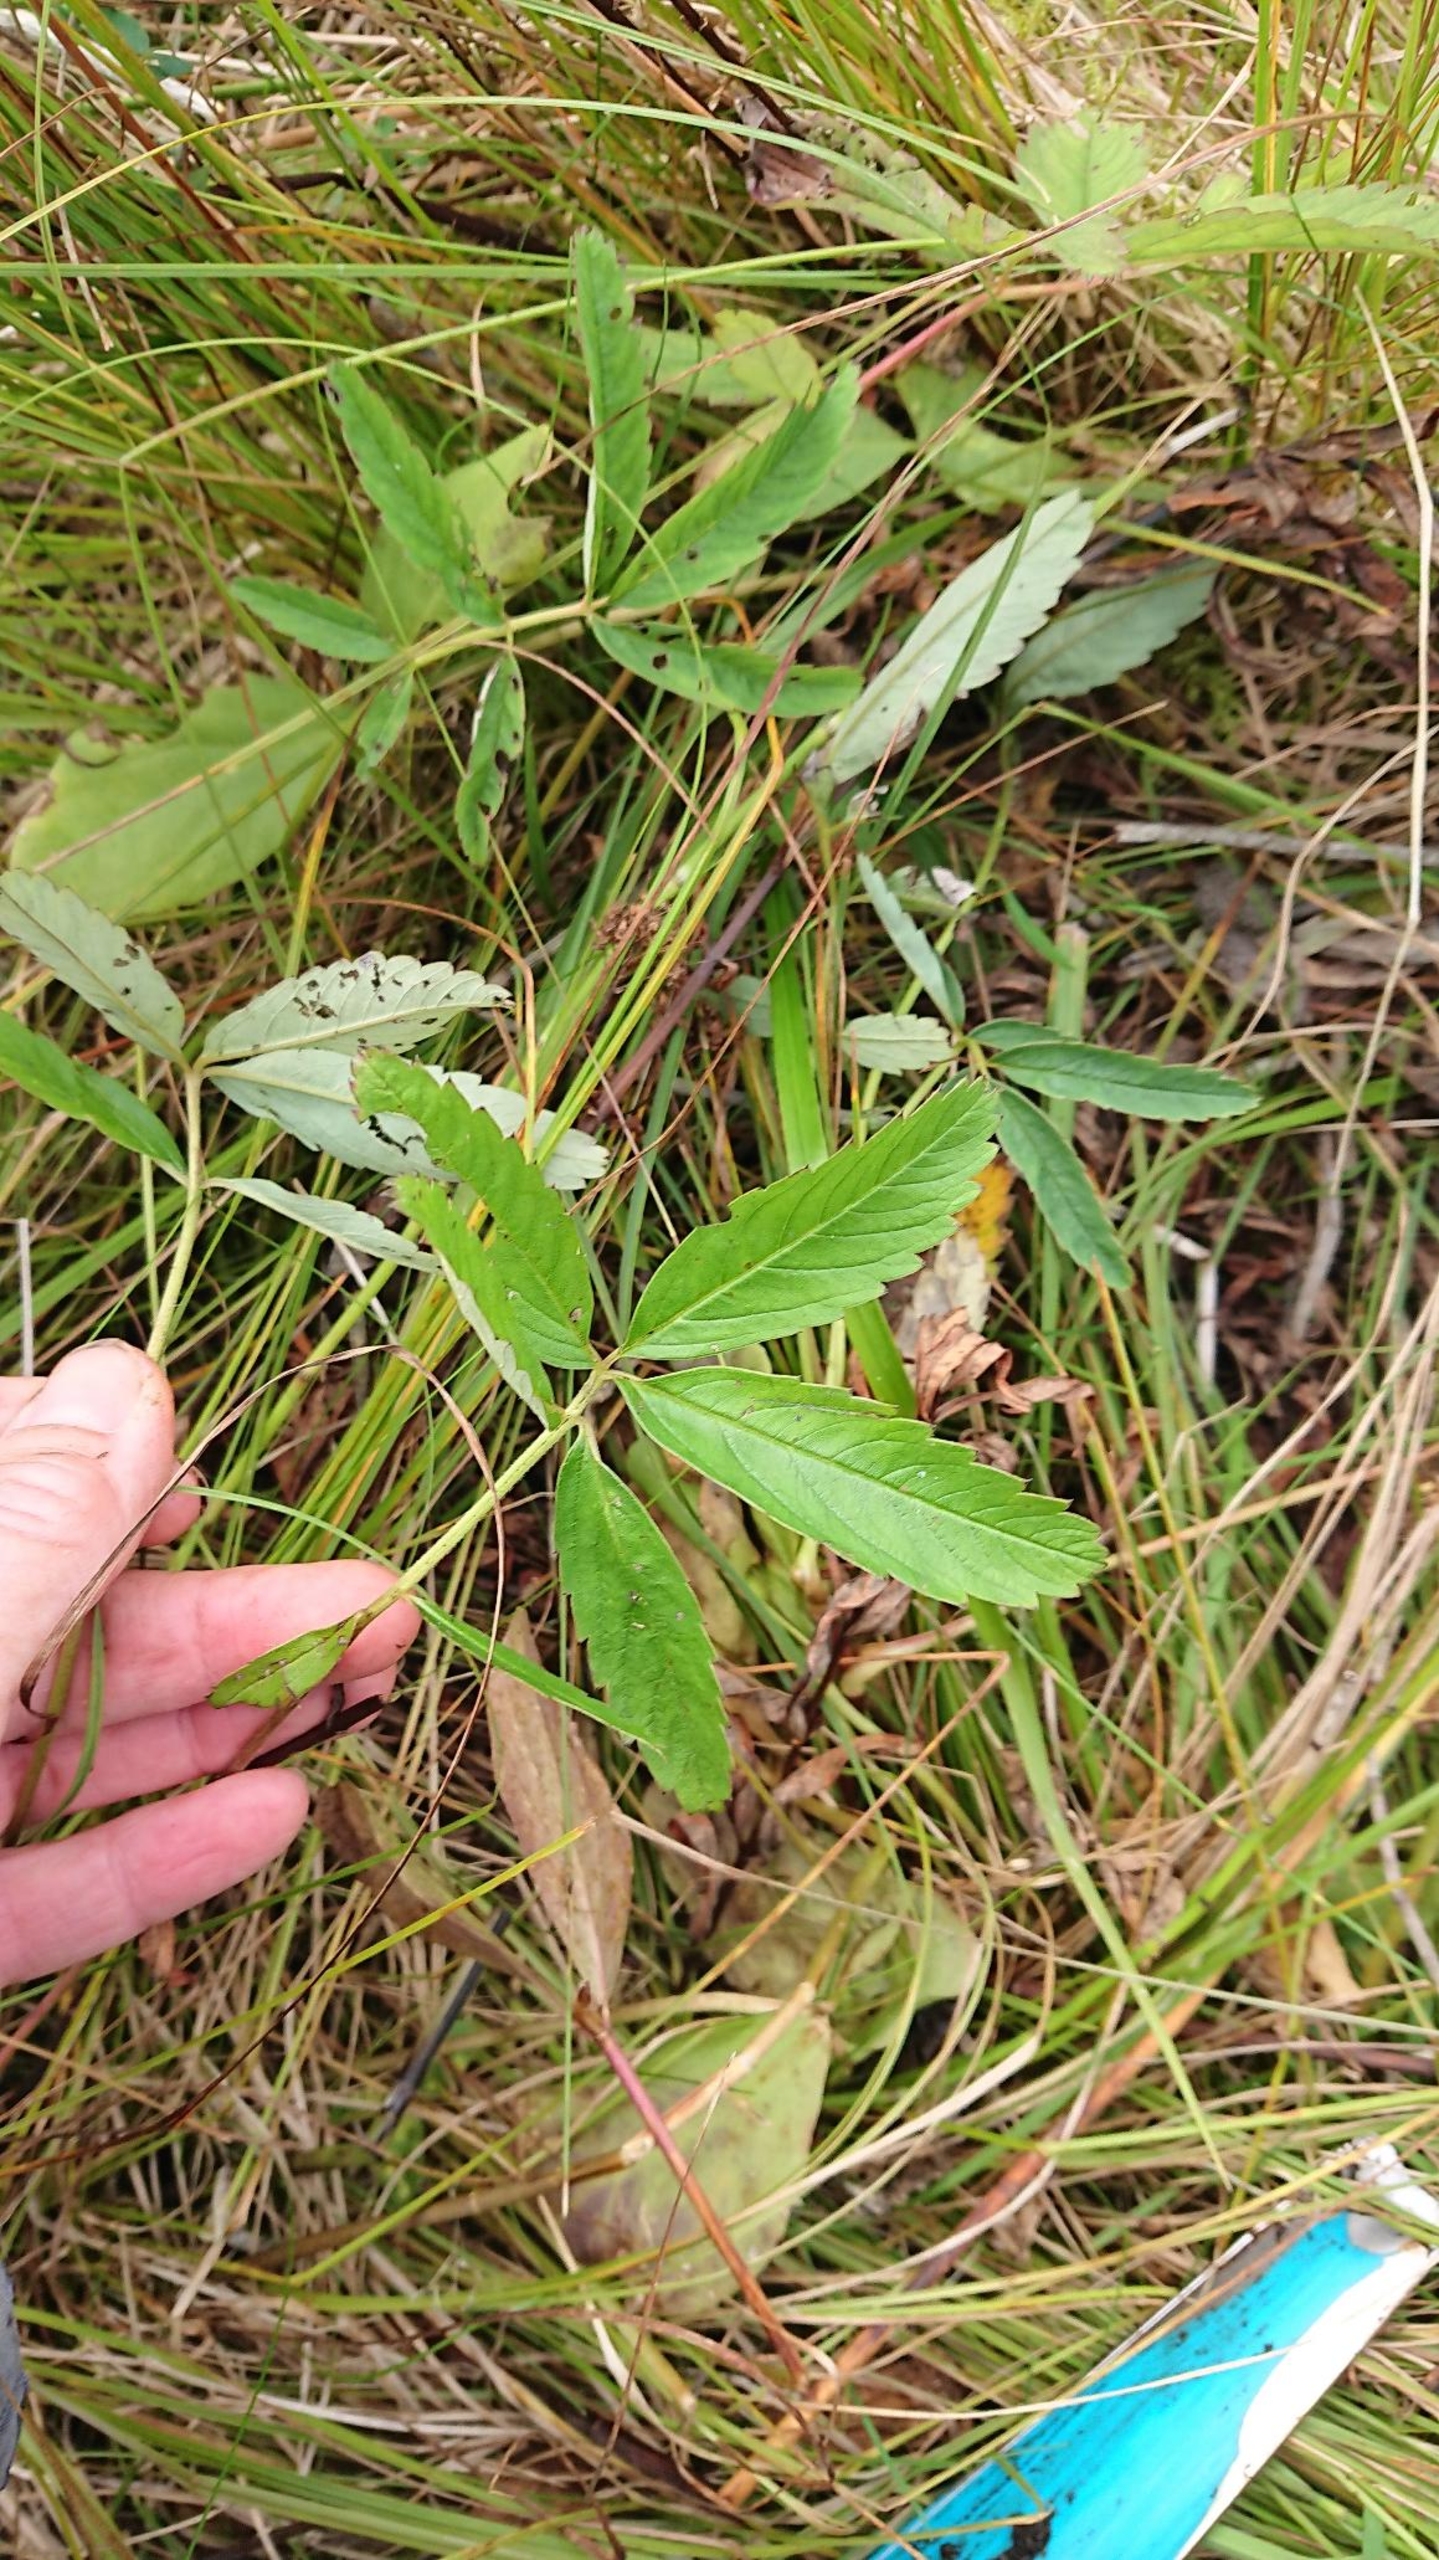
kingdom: Plantae
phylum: Tracheophyta
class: Magnoliopsida
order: Rosales
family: Rosaceae
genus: Comarum
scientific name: Comarum palustre
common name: Kragefod
